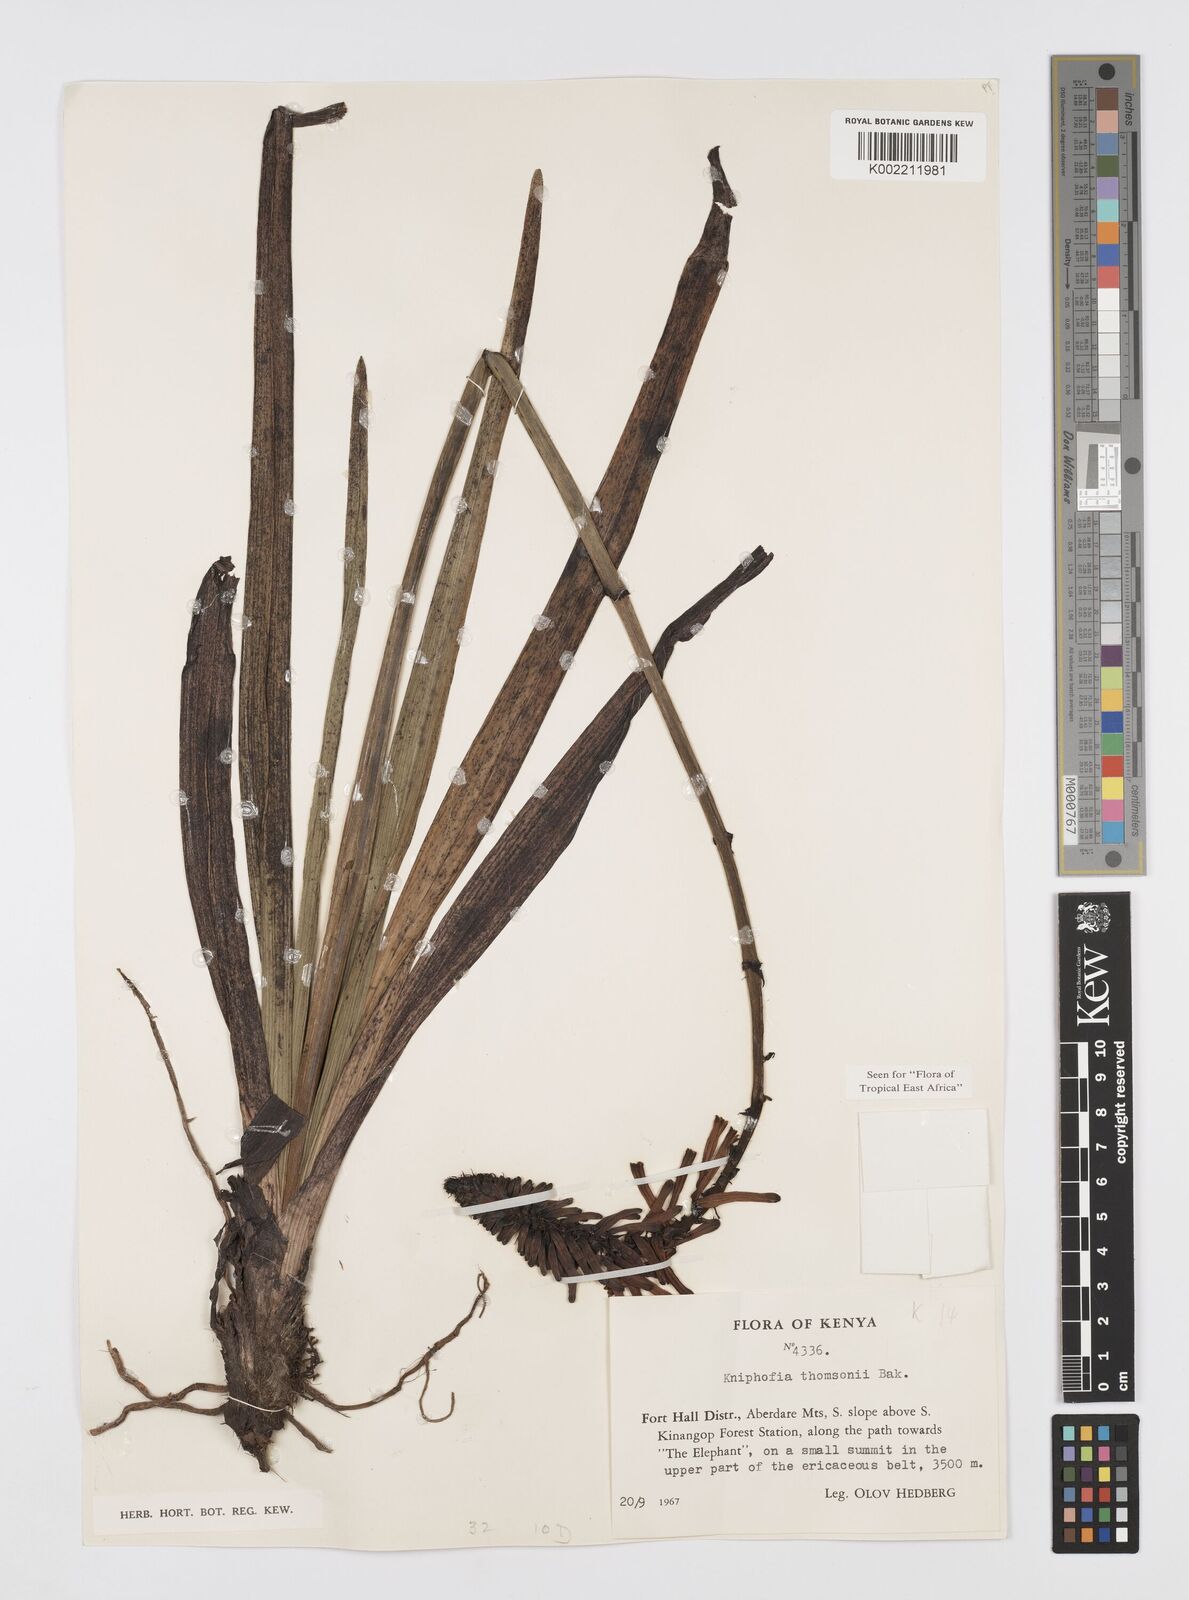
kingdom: Plantae
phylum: Tracheophyta
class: Liliopsida
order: Asparagales
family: Asphodelaceae
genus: Kniphofia
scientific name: Kniphofia thomsonii
